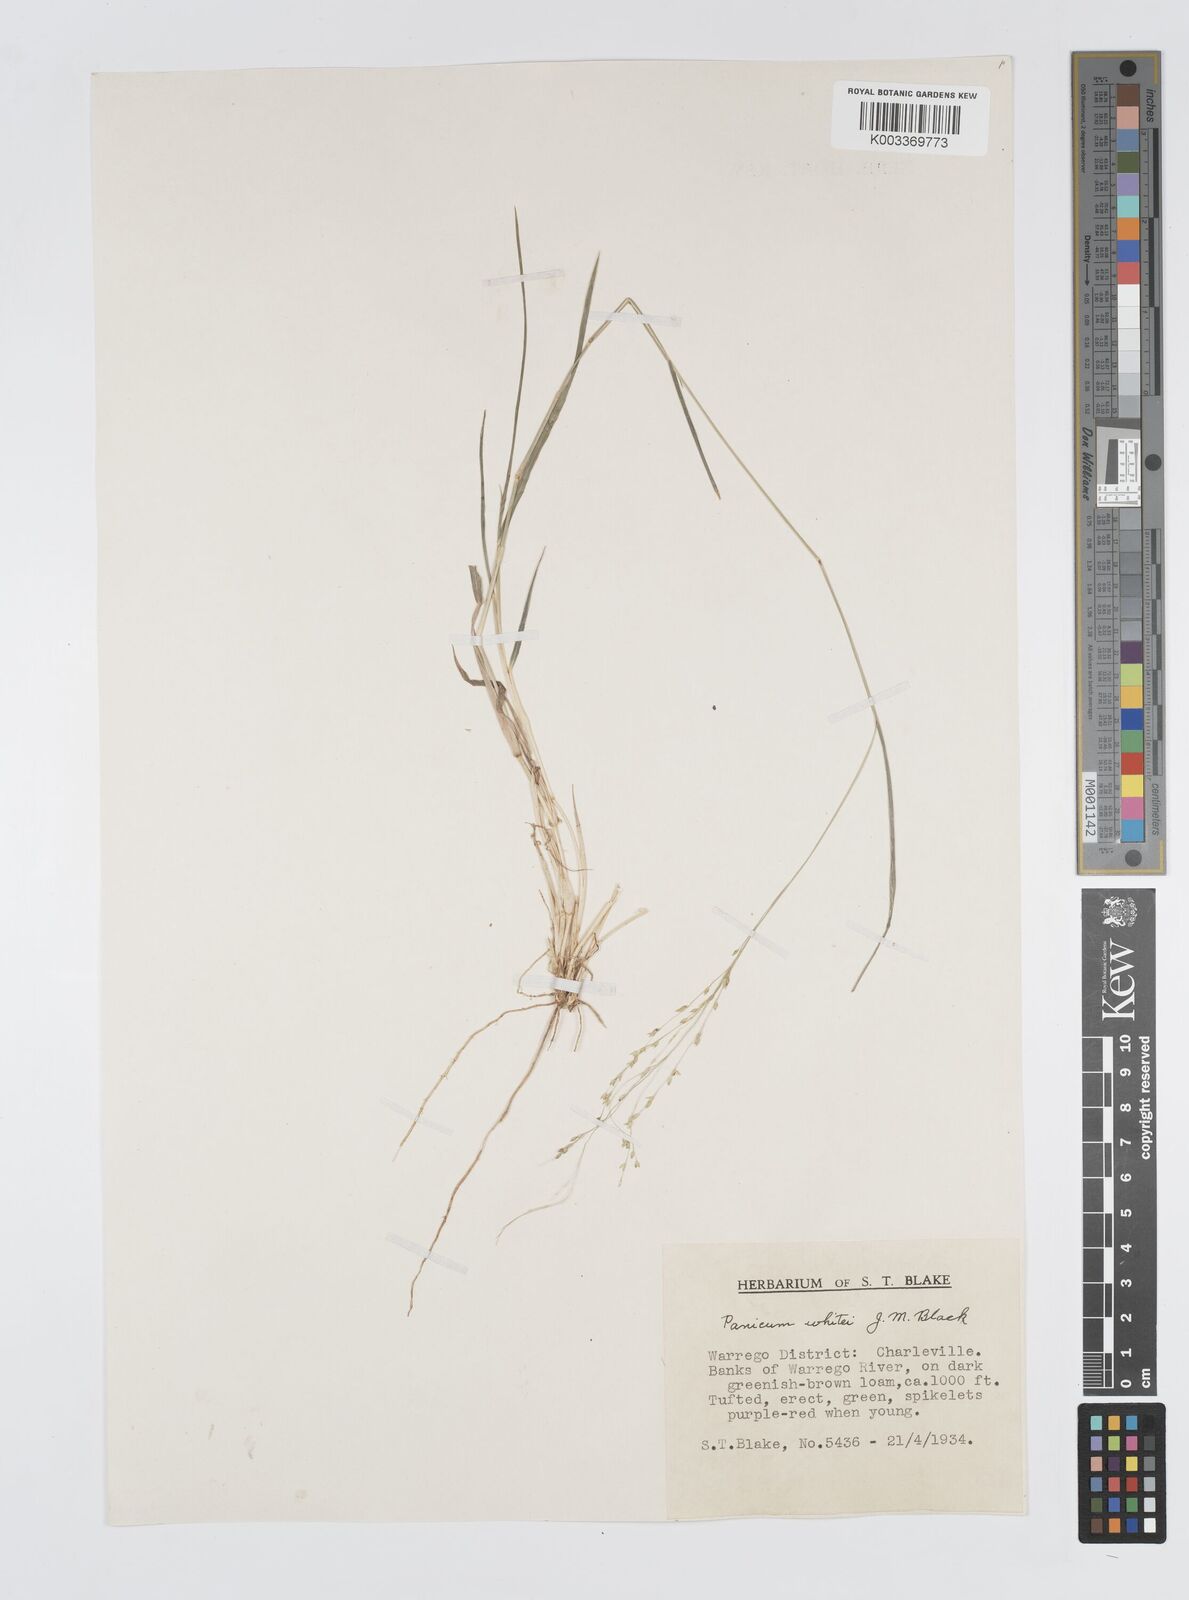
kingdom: Plantae
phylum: Tracheophyta
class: Liliopsida
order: Poales
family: Poaceae
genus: Panicum
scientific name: Panicum laevinode
